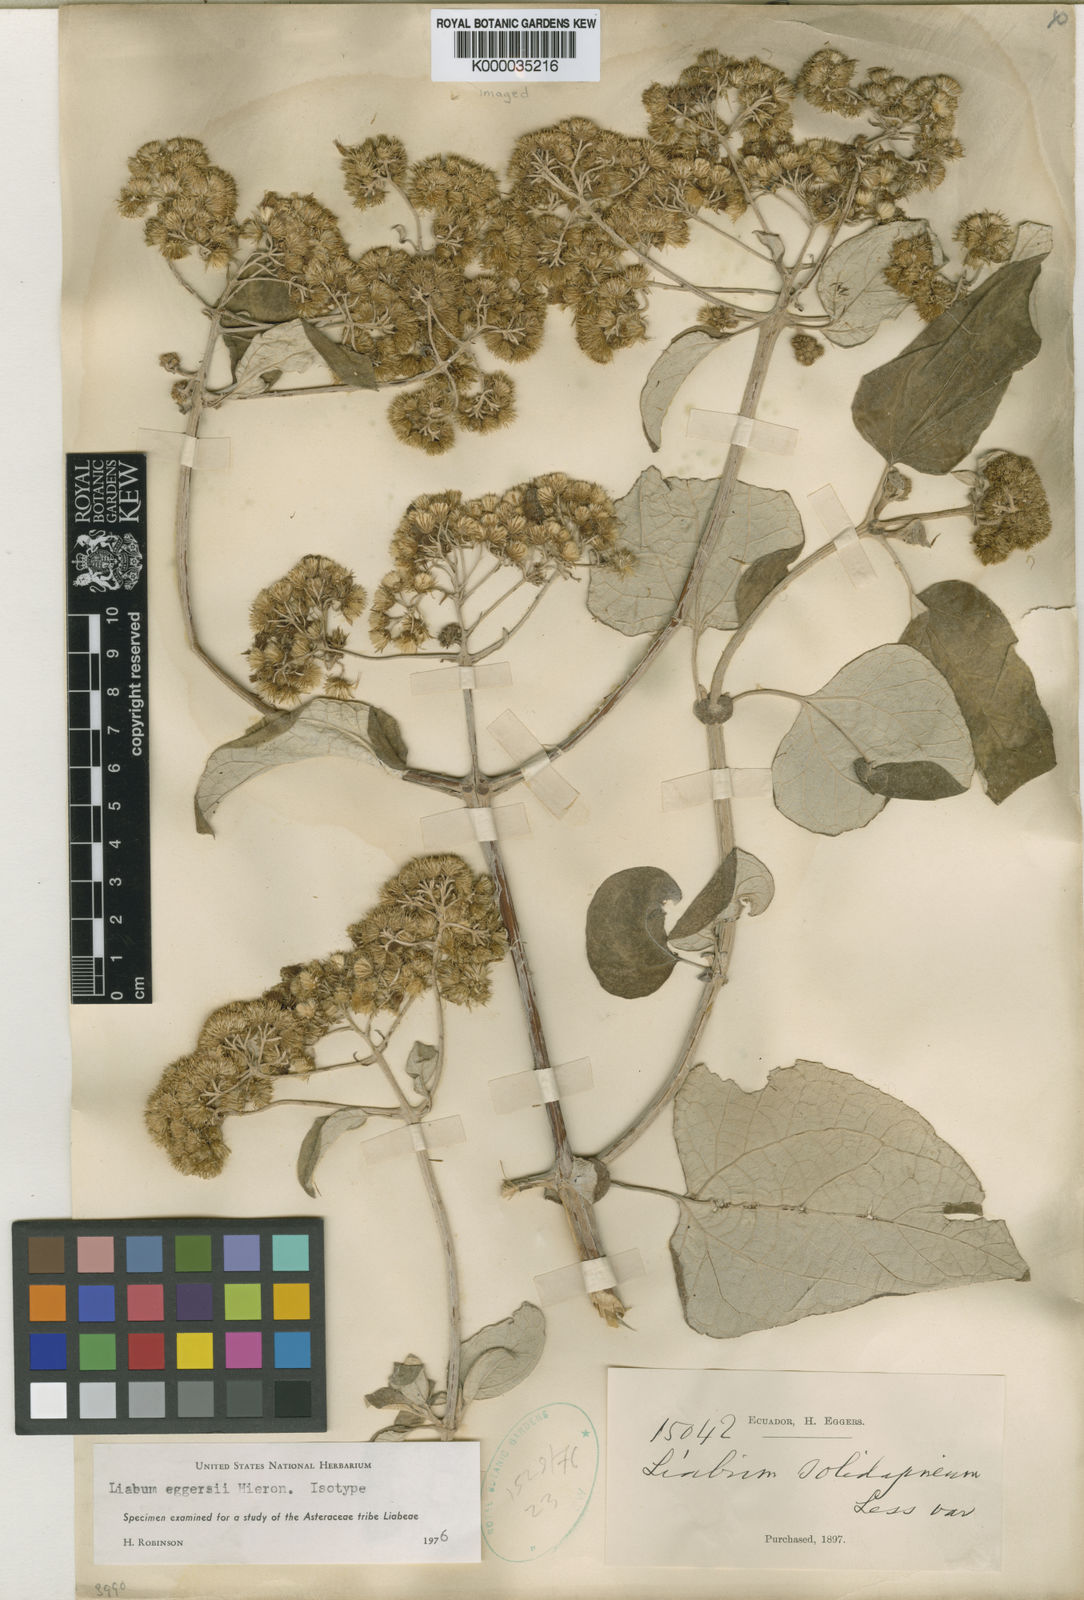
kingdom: Plantae
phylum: Tracheophyta
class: Magnoliopsida
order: Asterales
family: Asteraceae
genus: Liabum
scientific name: Liabum eggersii
